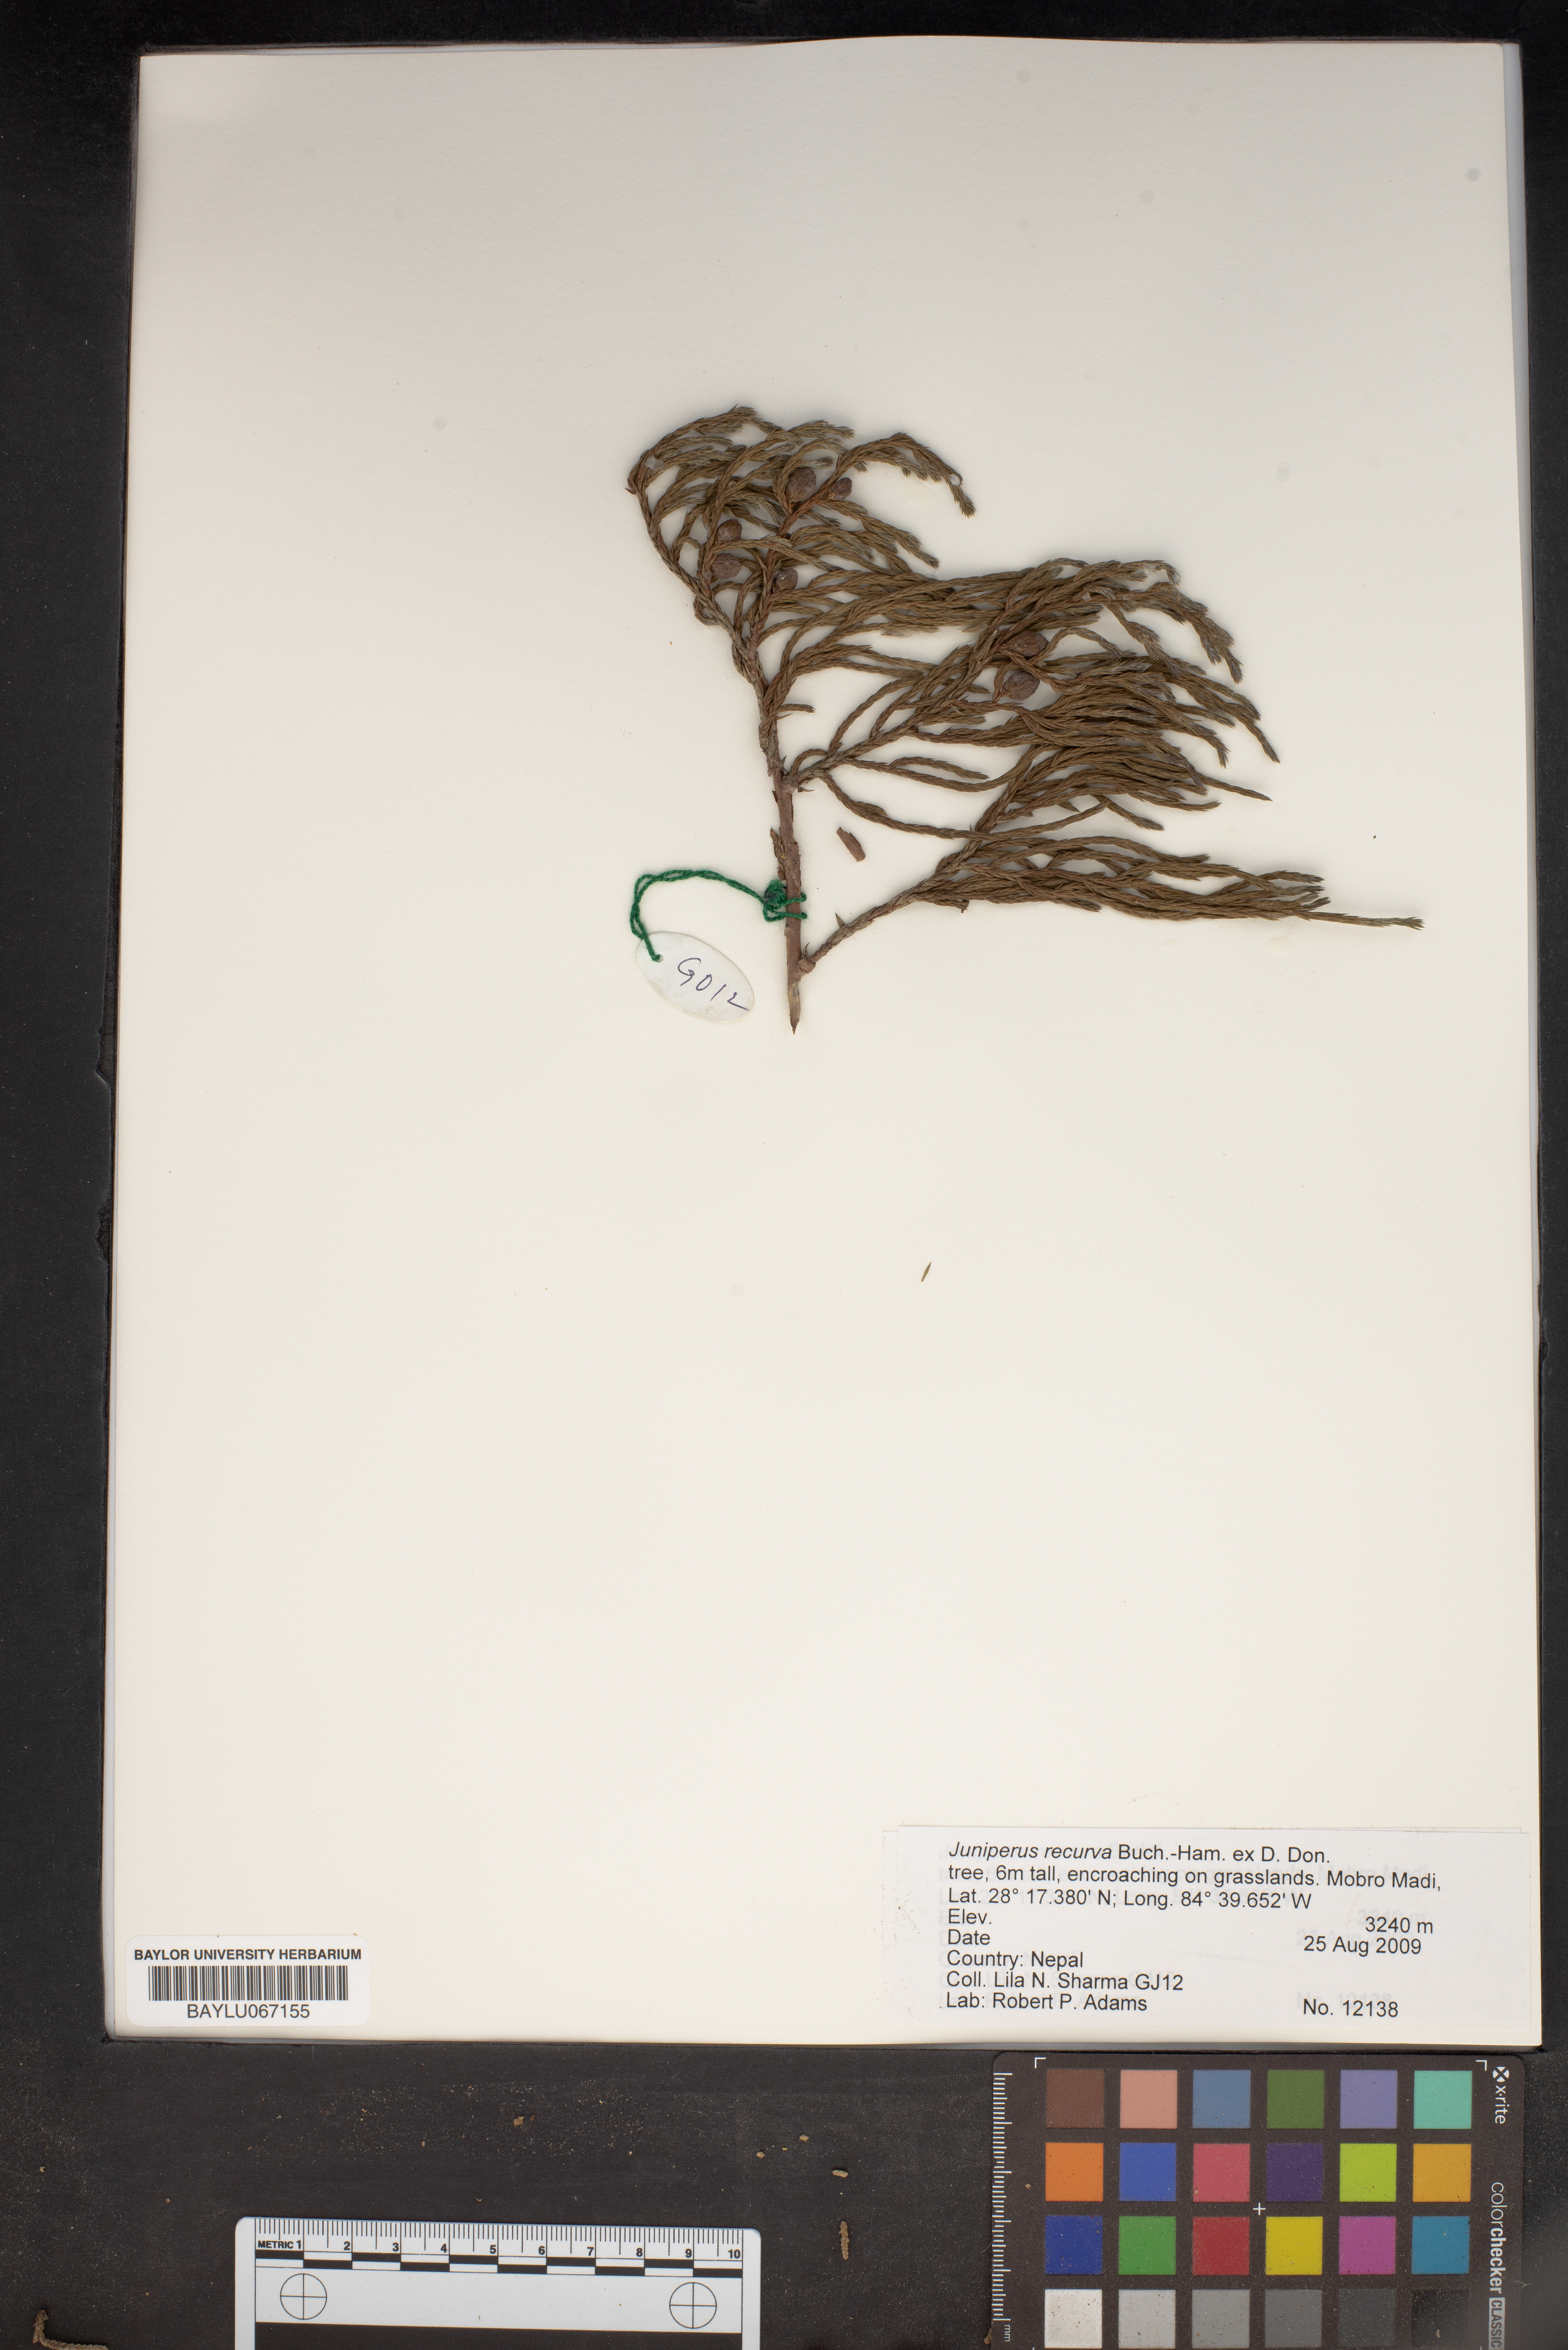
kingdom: Plantae
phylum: Tracheophyta
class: Pinopsida
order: Pinales
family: Cupressaceae
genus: Juniperus
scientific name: Juniperus recurva
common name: Drooping juniper
